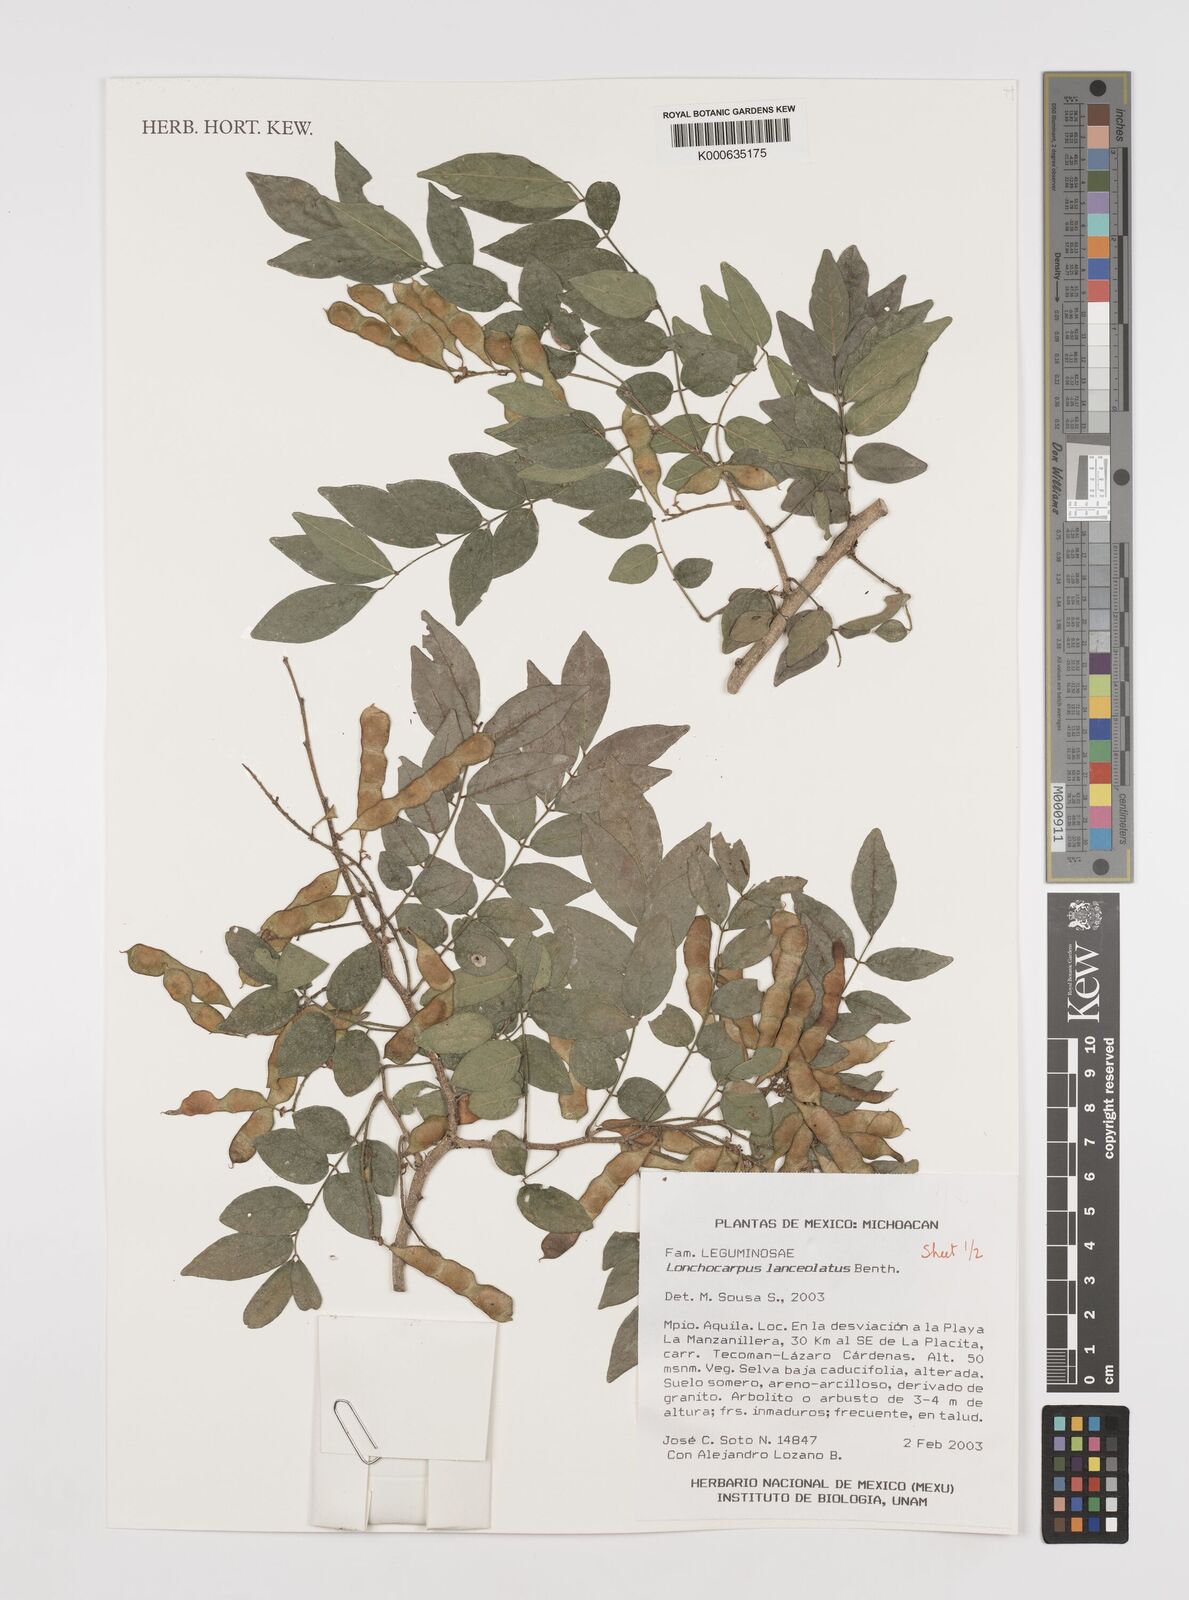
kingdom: Plantae
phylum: Tracheophyta
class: Magnoliopsida
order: Fabales
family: Fabaceae
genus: Lonchocarpus
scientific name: Lonchocarpus lanceolatus
